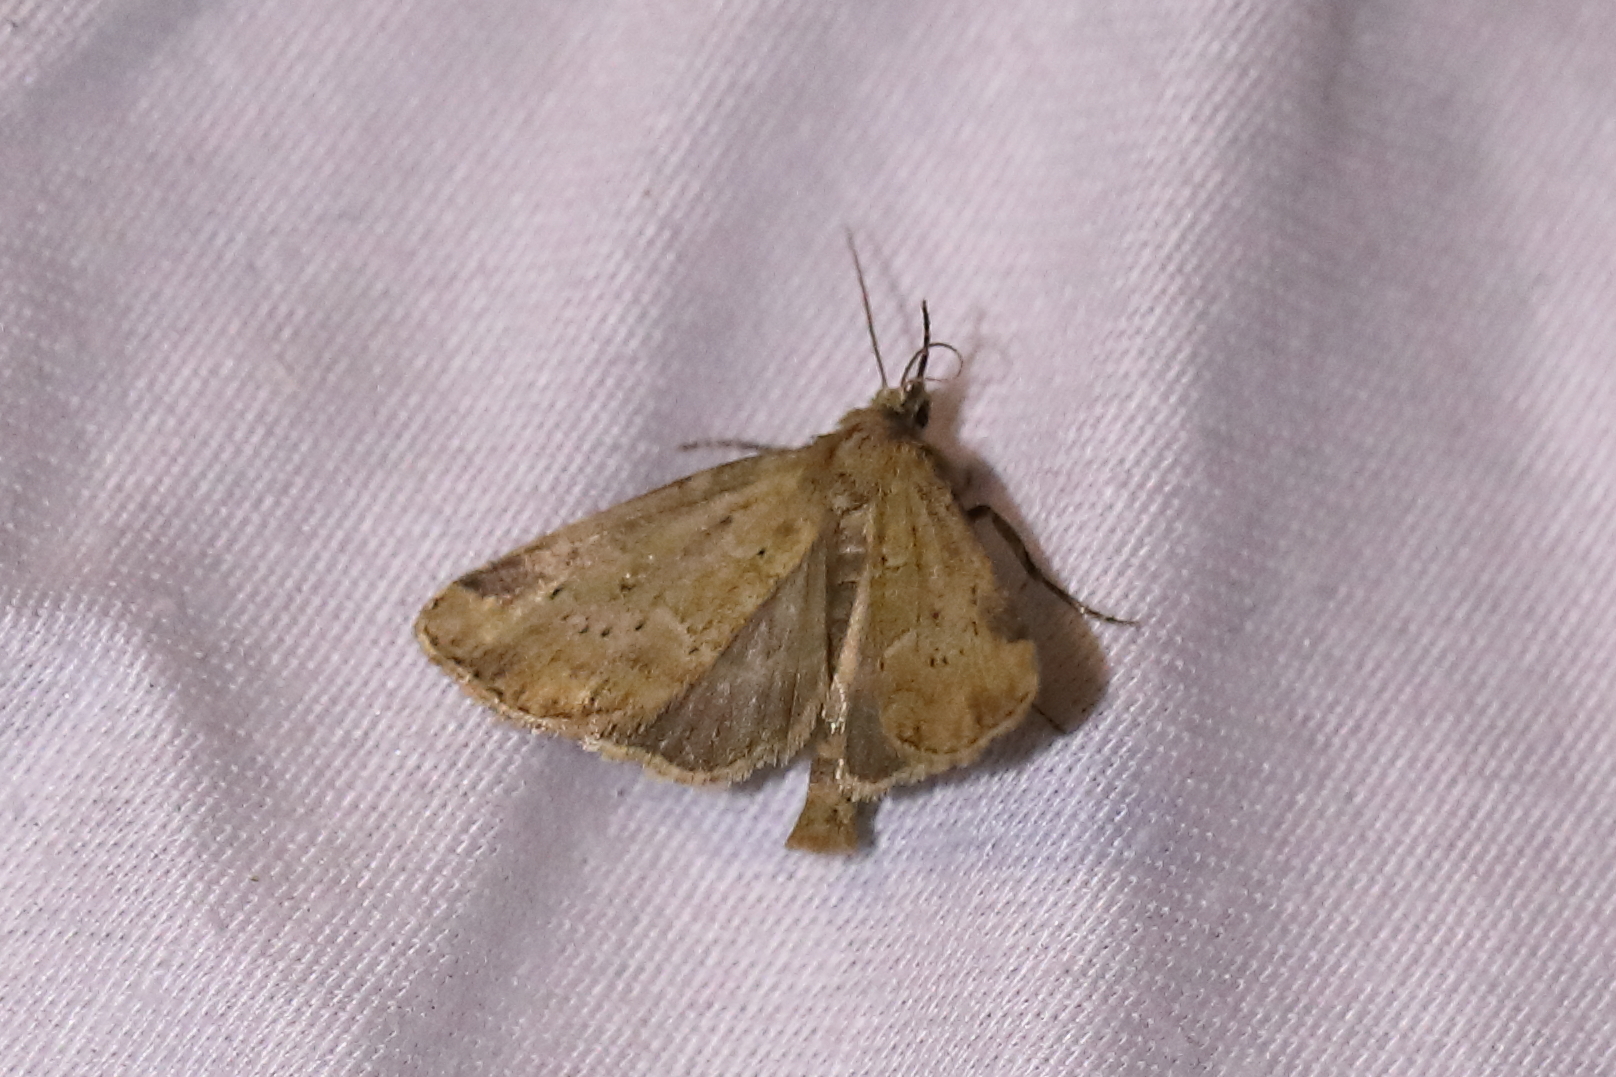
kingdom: Animalia
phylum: Arthropoda
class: Insecta
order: Lepidoptera
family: Noctuidae
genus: Photedes
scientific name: Photedes minima
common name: Small dotted buff
